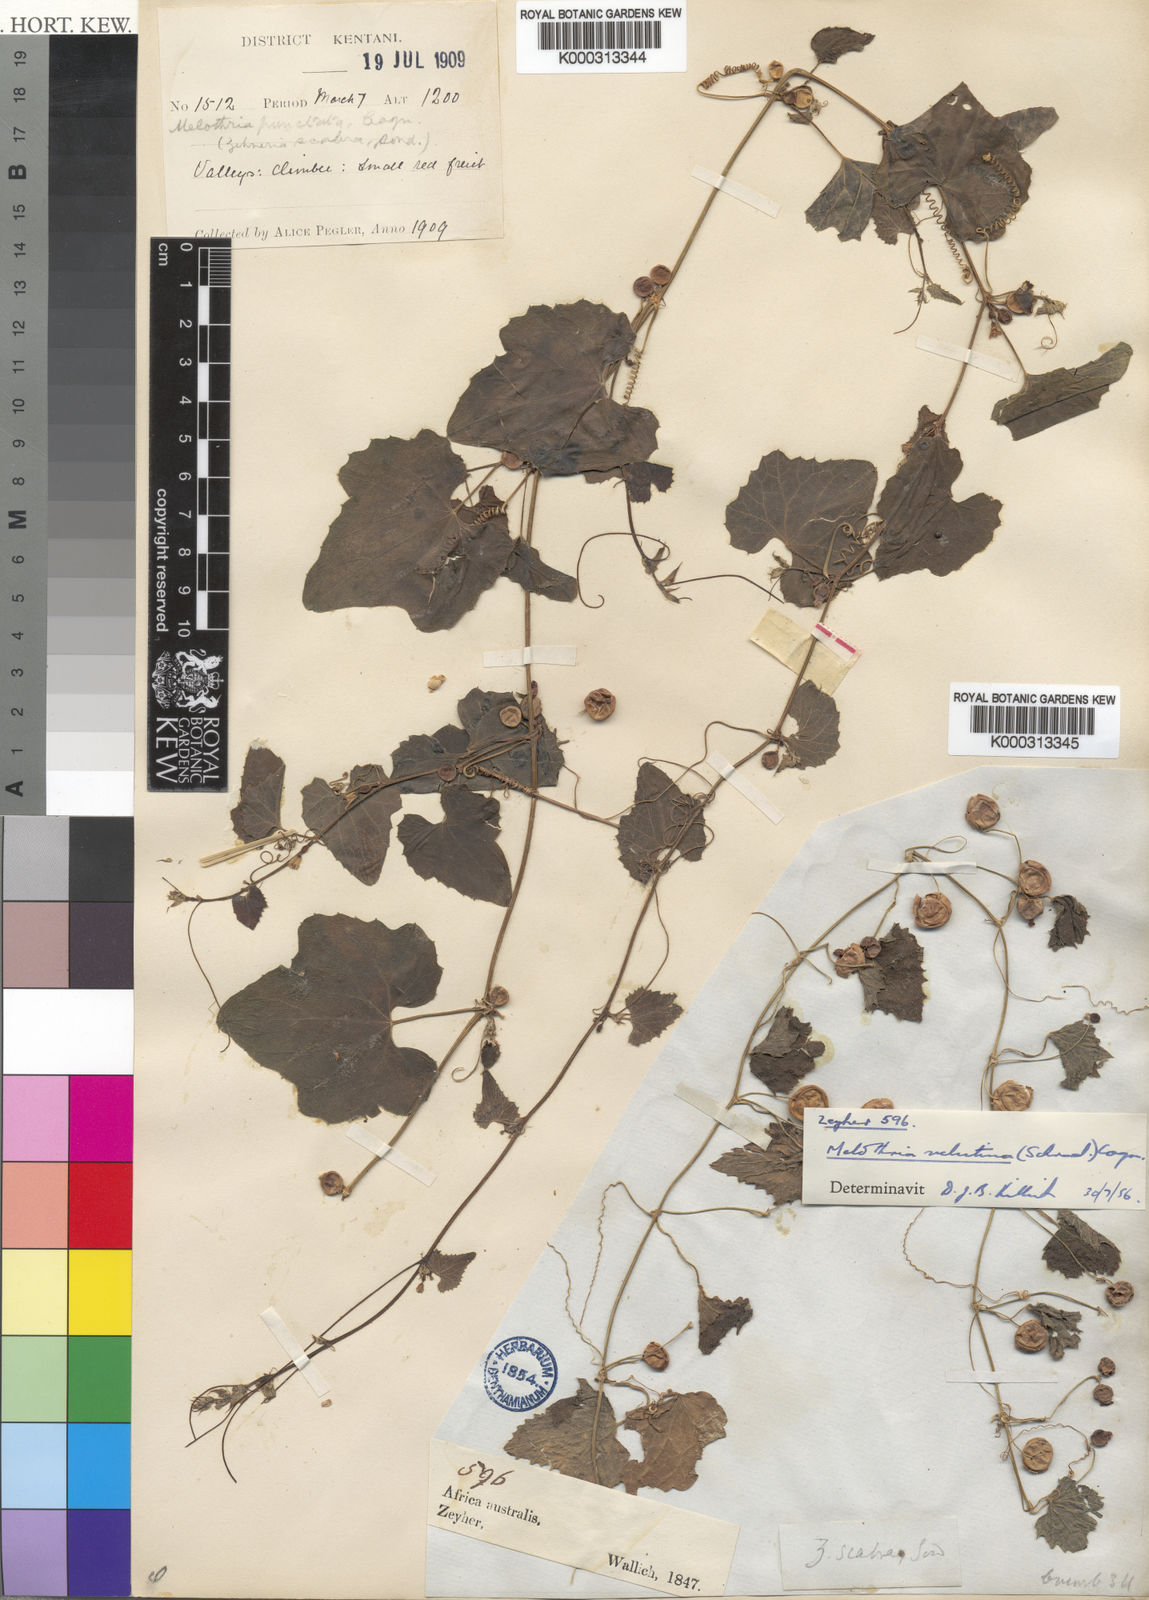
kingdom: Plantae
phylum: Tracheophyta
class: Magnoliopsida
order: Cucurbitales
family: Cucurbitaceae
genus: Zehneria
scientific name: Zehneria scabra
